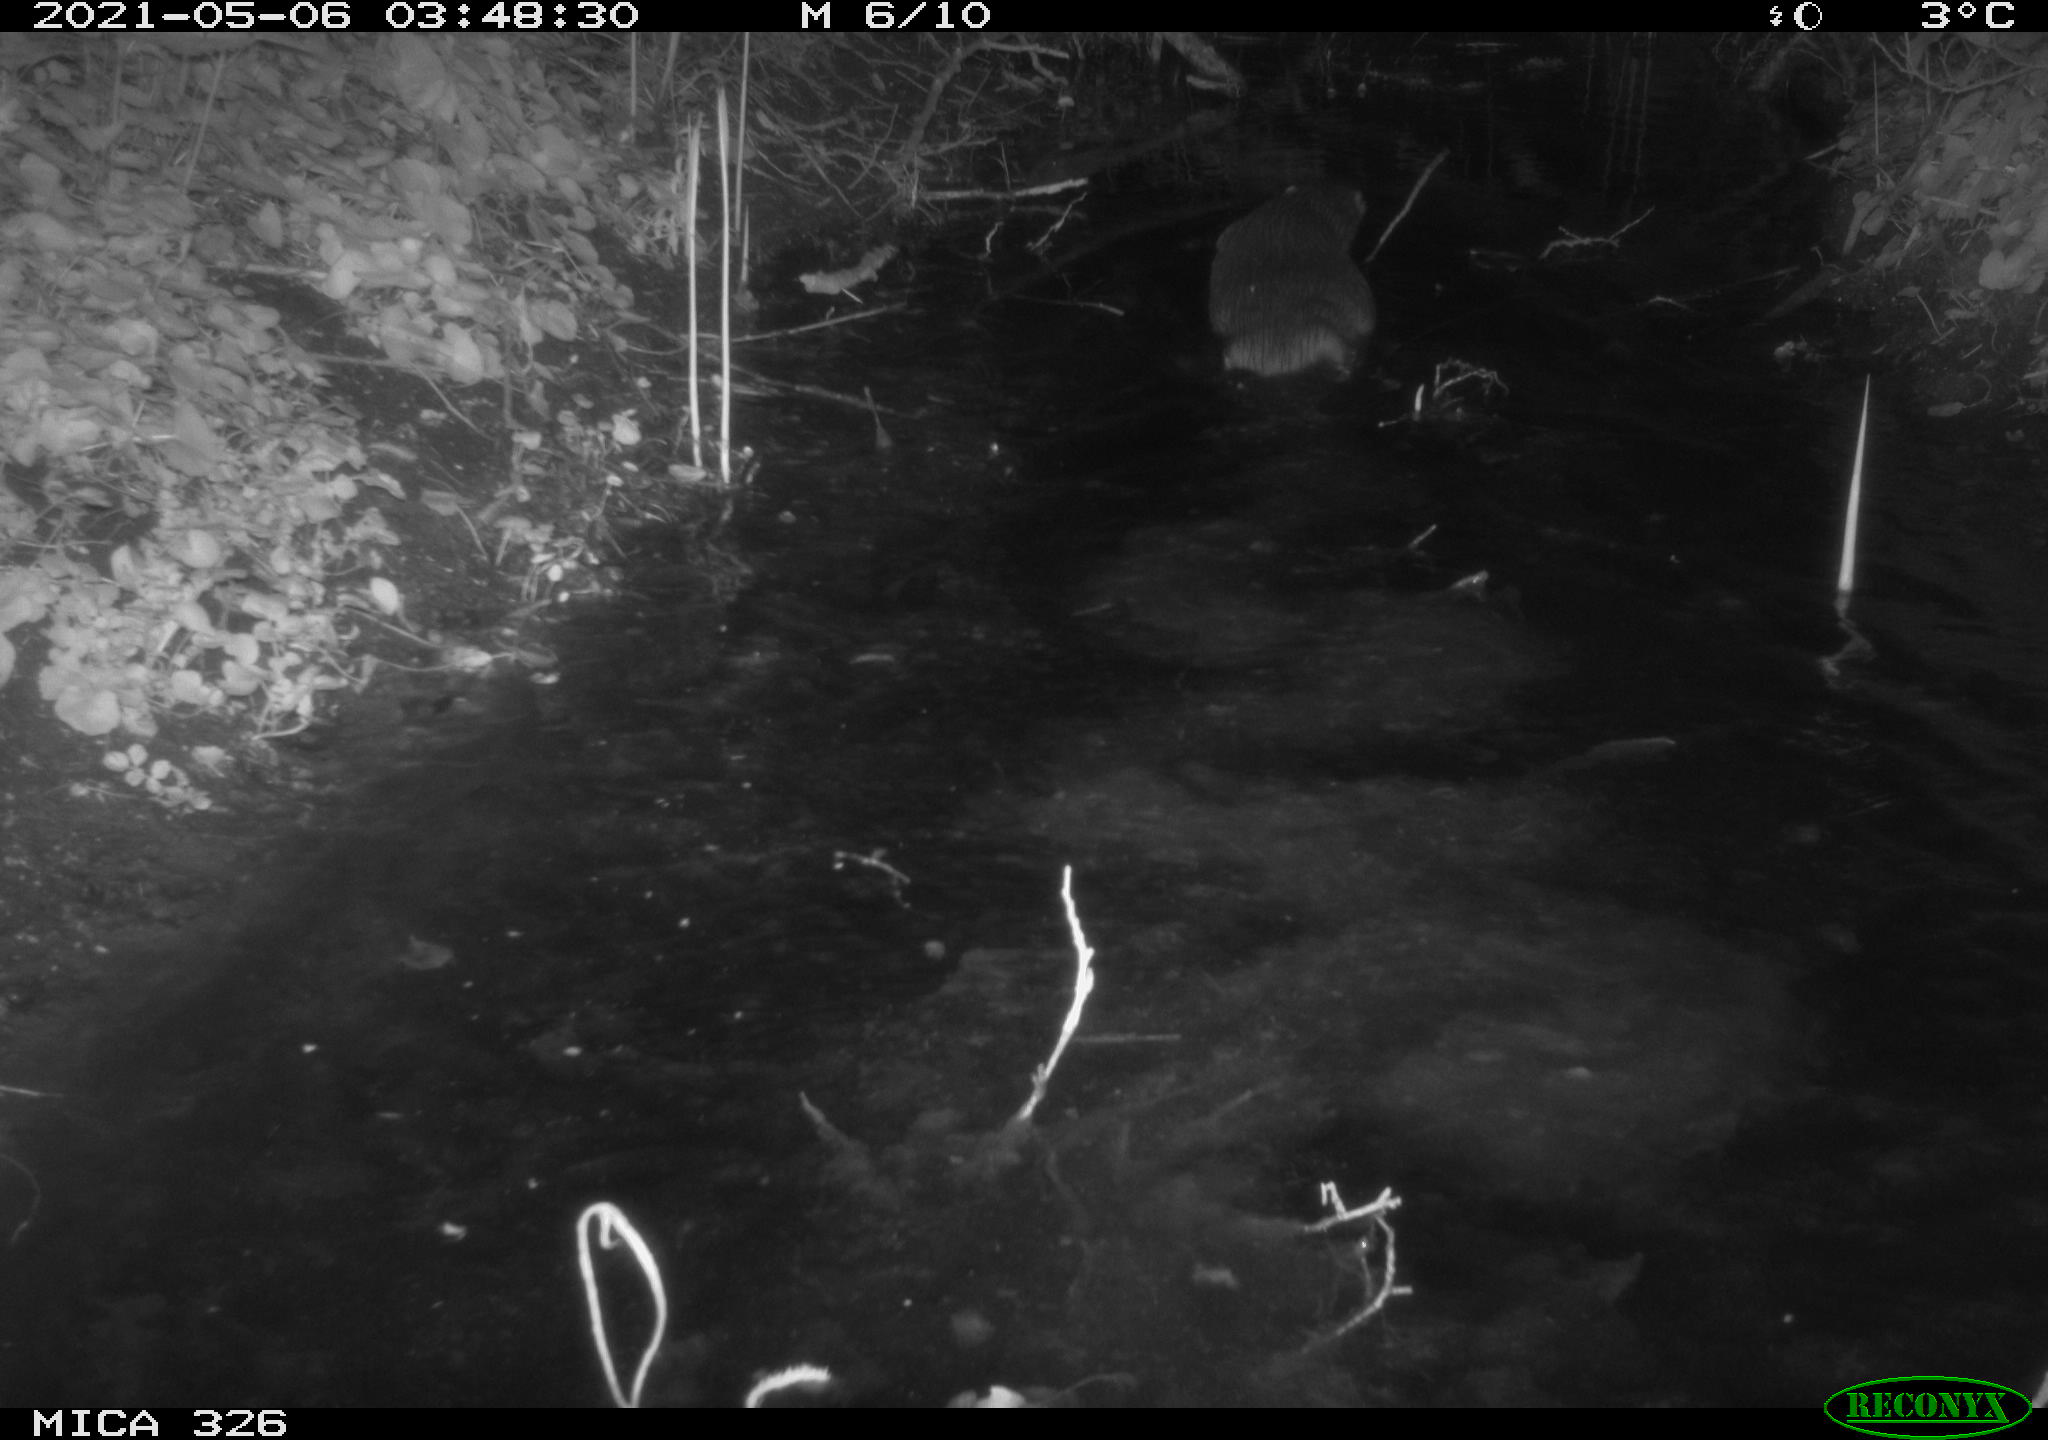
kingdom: Animalia
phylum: Chordata
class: Mammalia
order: Carnivora
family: Mustelidae
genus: Lutra
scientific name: Lutra lutra
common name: European otter
